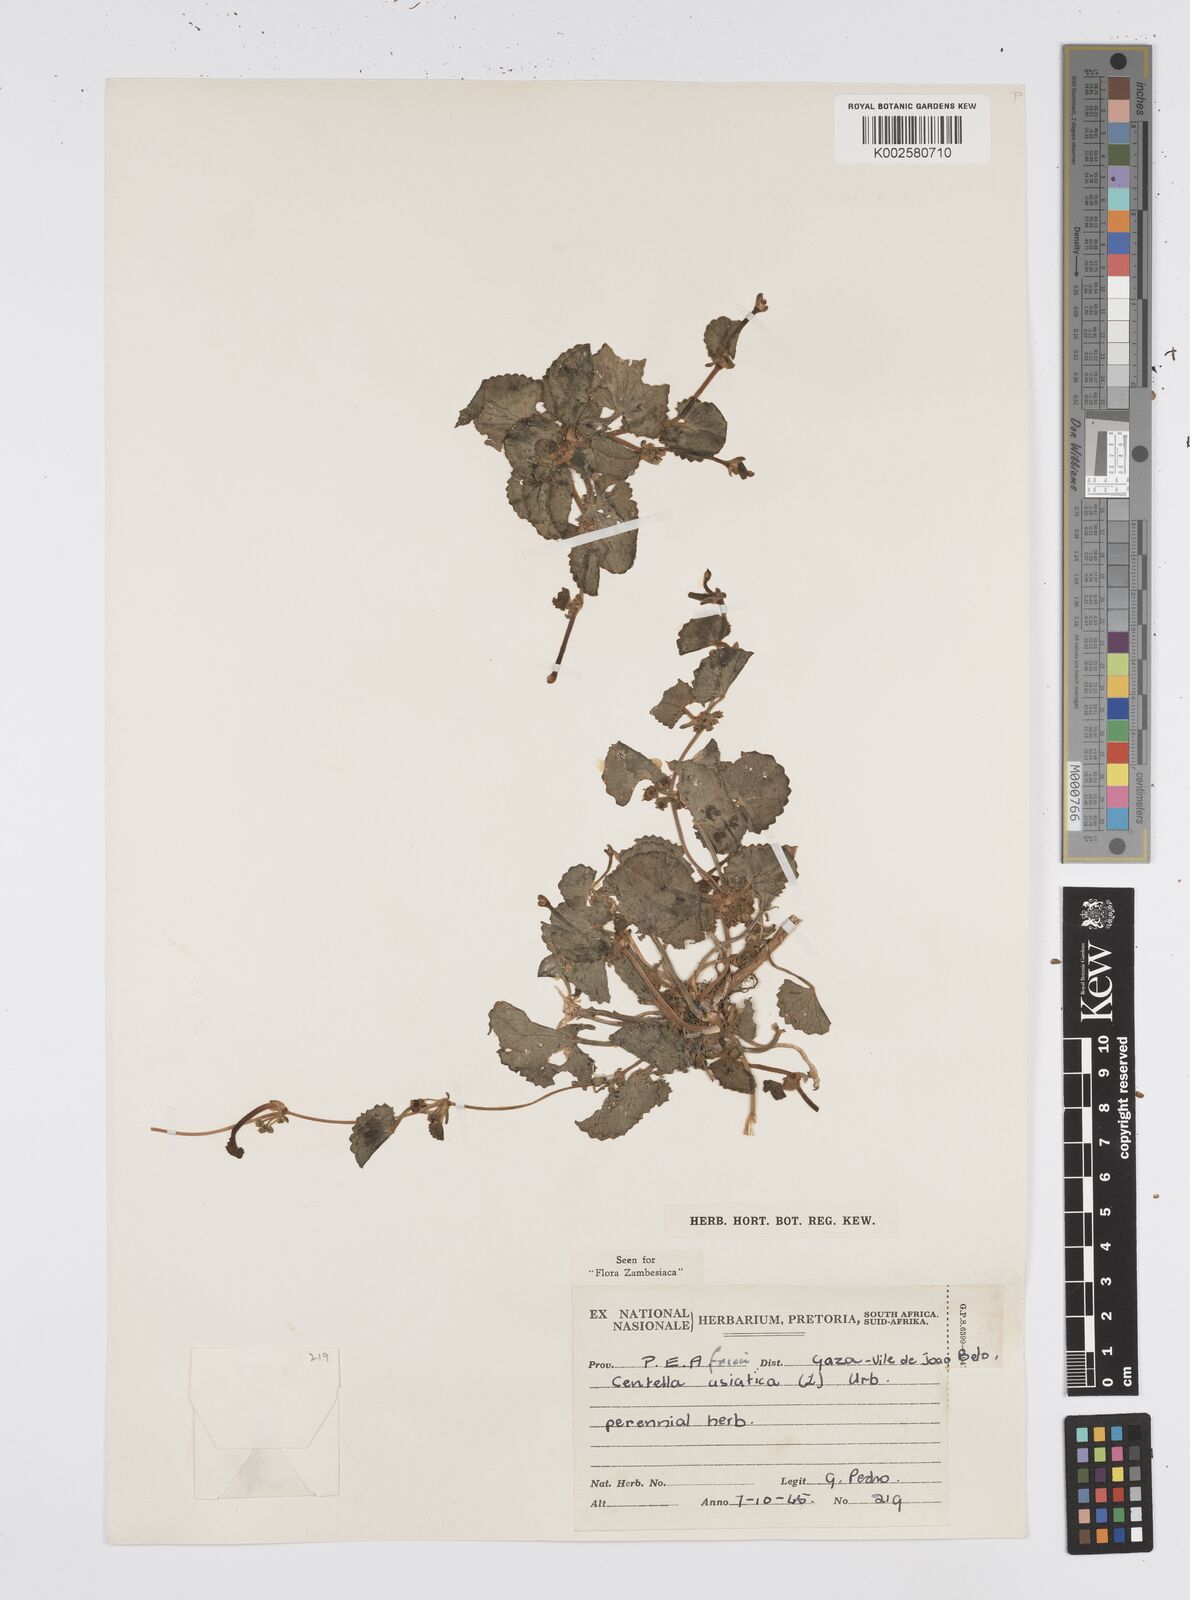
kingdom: Plantae
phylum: Tracheophyta
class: Magnoliopsida
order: Apiales
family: Apiaceae
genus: Centella
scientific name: Centella asiatica
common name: Spadeleaf
